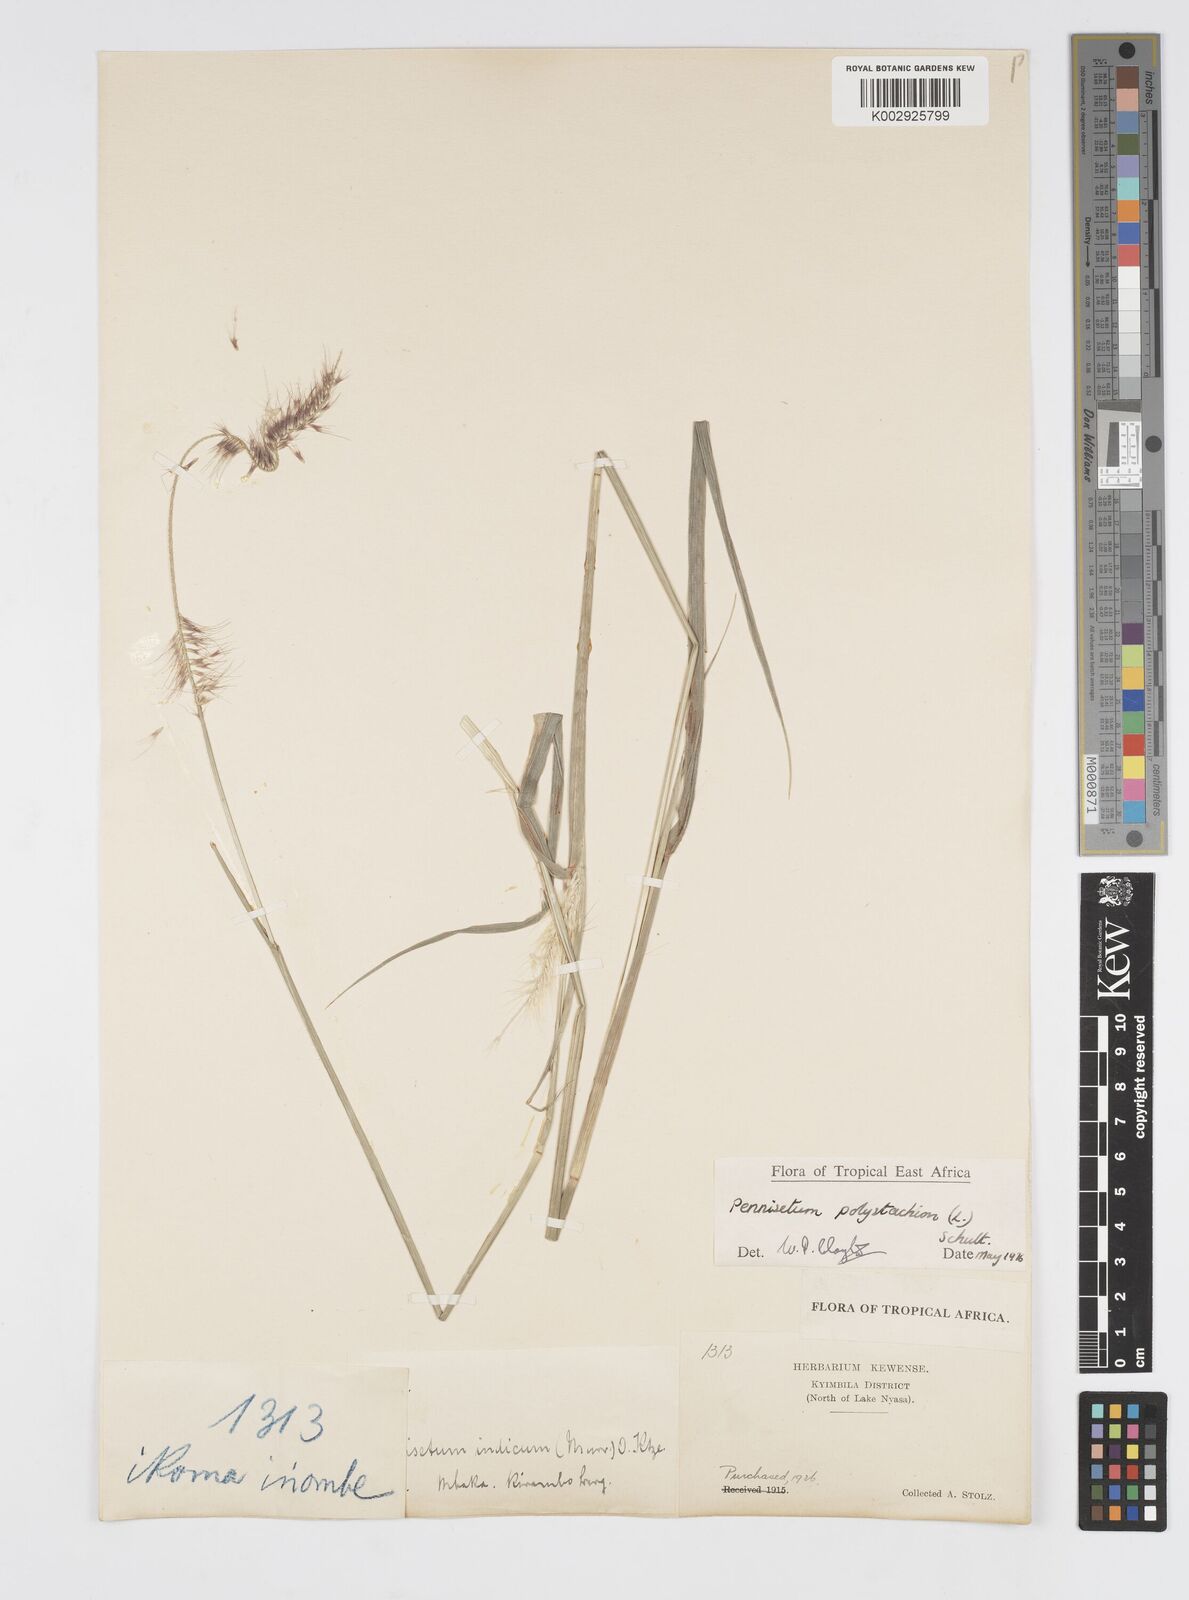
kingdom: Plantae
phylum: Tracheophyta
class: Liliopsida
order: Poales
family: Poaceae
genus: Setaria
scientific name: Setaria parviflora
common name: Knotroot bristle-grass
